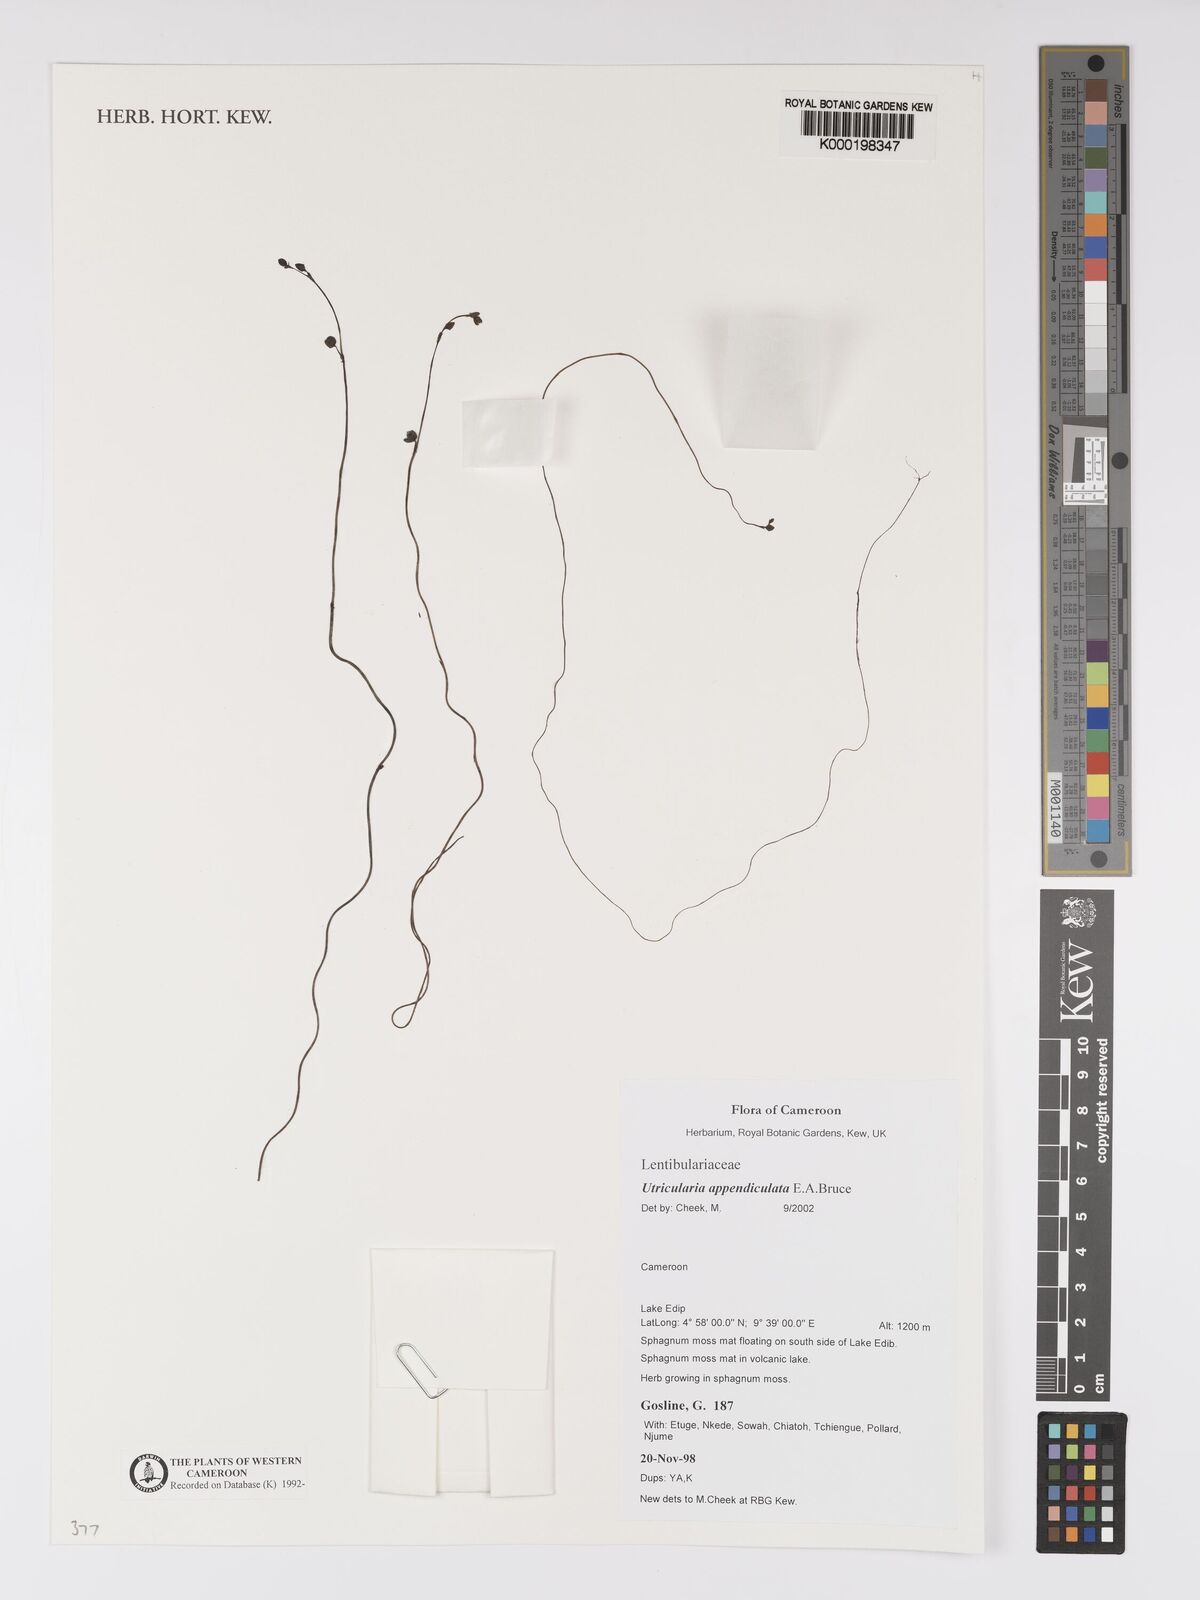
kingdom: Plantae
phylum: Tracheophyta
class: Magnoliopsida
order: Lamiales
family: Lentibulariaceae
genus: Utricularia
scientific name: Utricularia appendiculata
